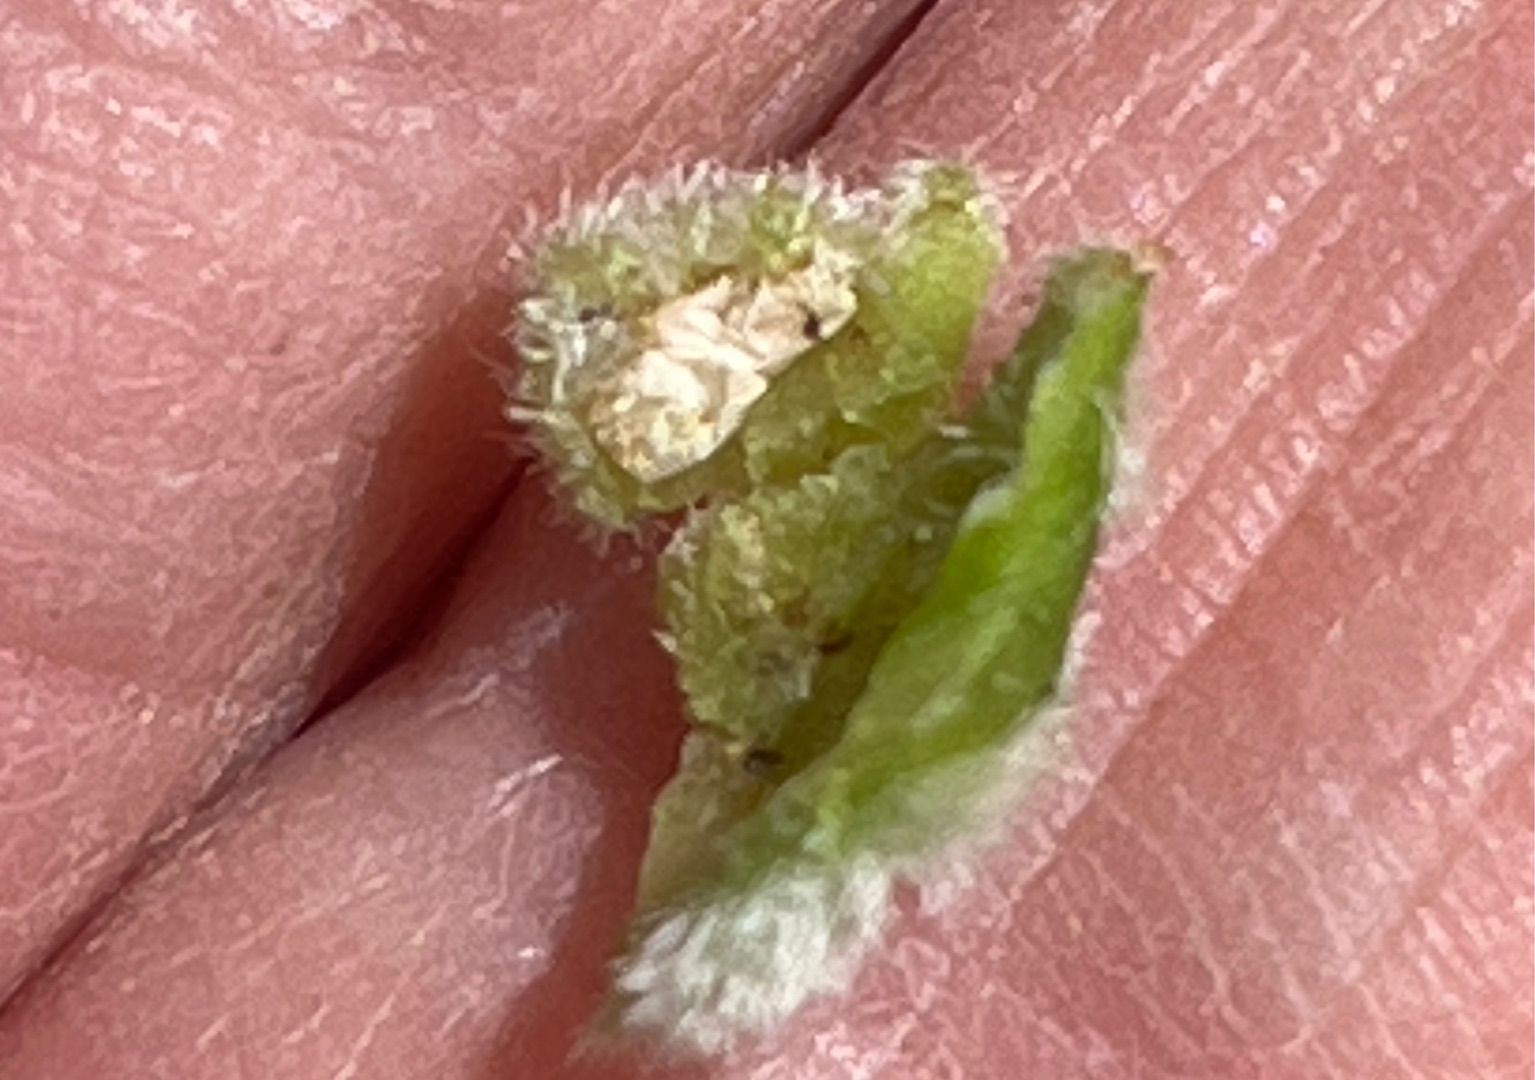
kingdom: Animalia
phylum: Arthropoda
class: Insecta
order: Diptera
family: Cecidomyiidae
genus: Dasineura
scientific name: Dasineura odoratae
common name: Martsviolgalmyg
